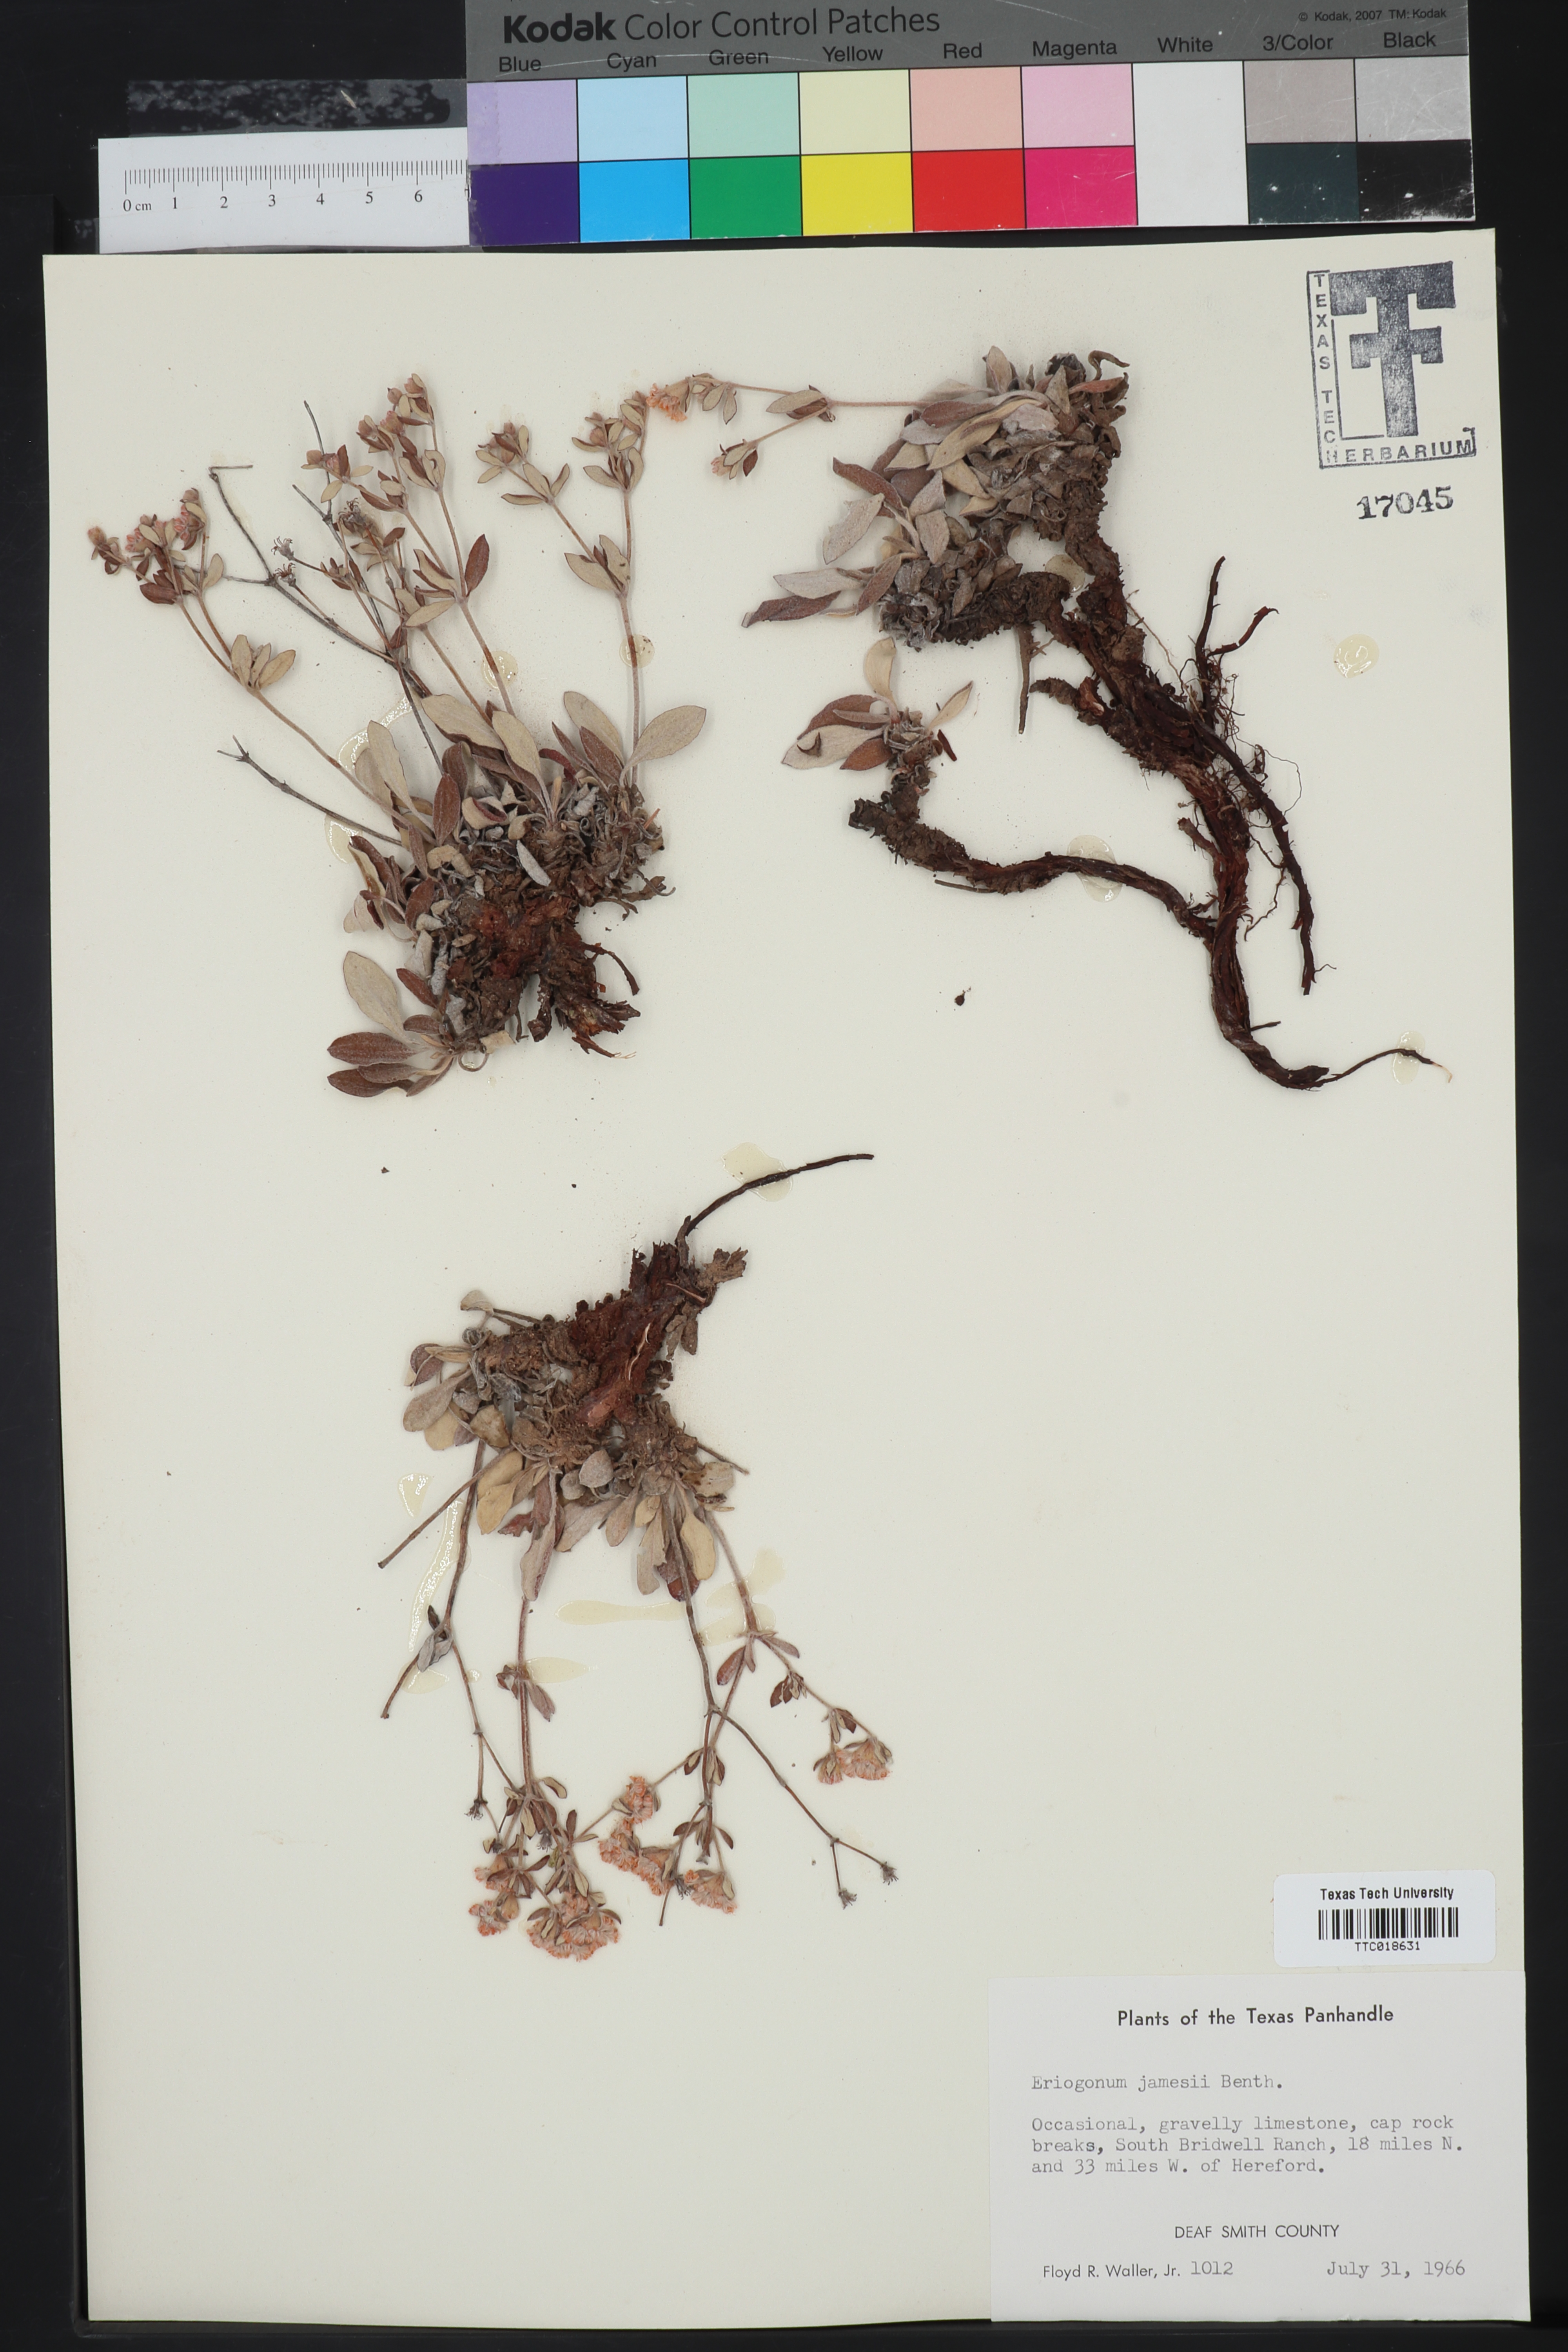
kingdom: Plantae
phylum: Tracheophyta
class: Magnoliopsida
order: Caryophyllales
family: Polygonaceae
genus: Eriogonum
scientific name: Eriogonum jamesii
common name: Antelope-sage
